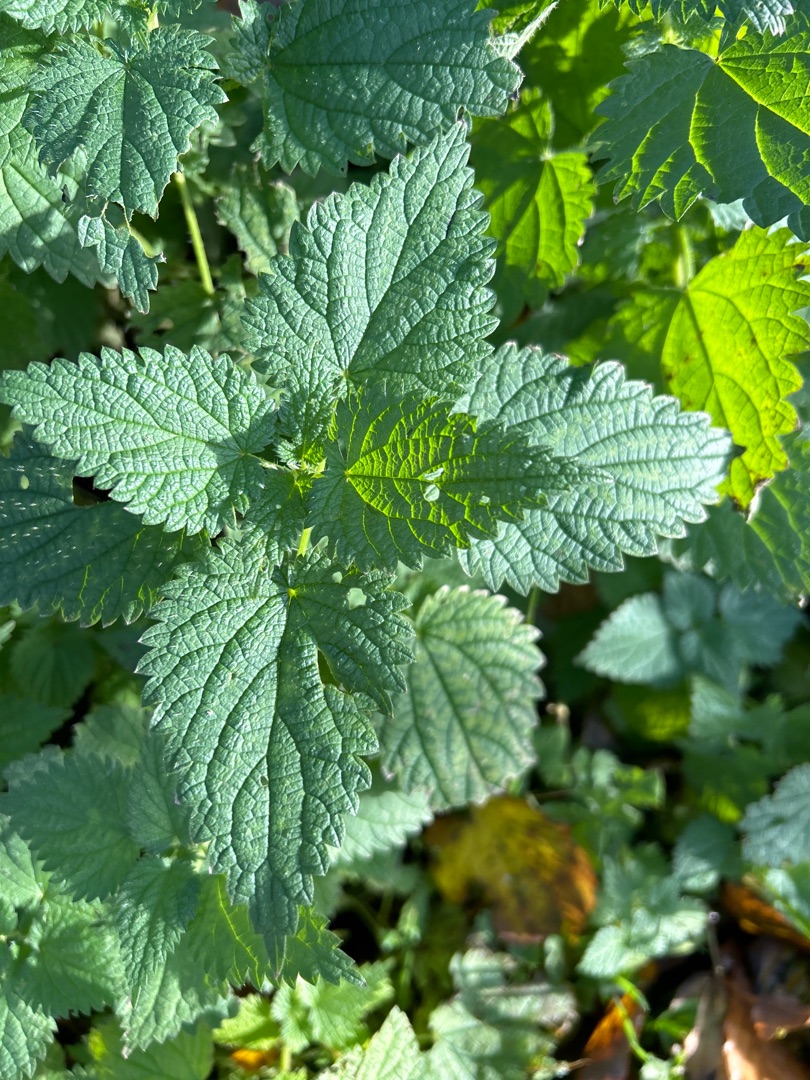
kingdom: Plantae
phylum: Tracheophyta
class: Magnoliopsida
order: Rosales
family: Urticaceae
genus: Urtica
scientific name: Urtica dioica
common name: Stor nælde
